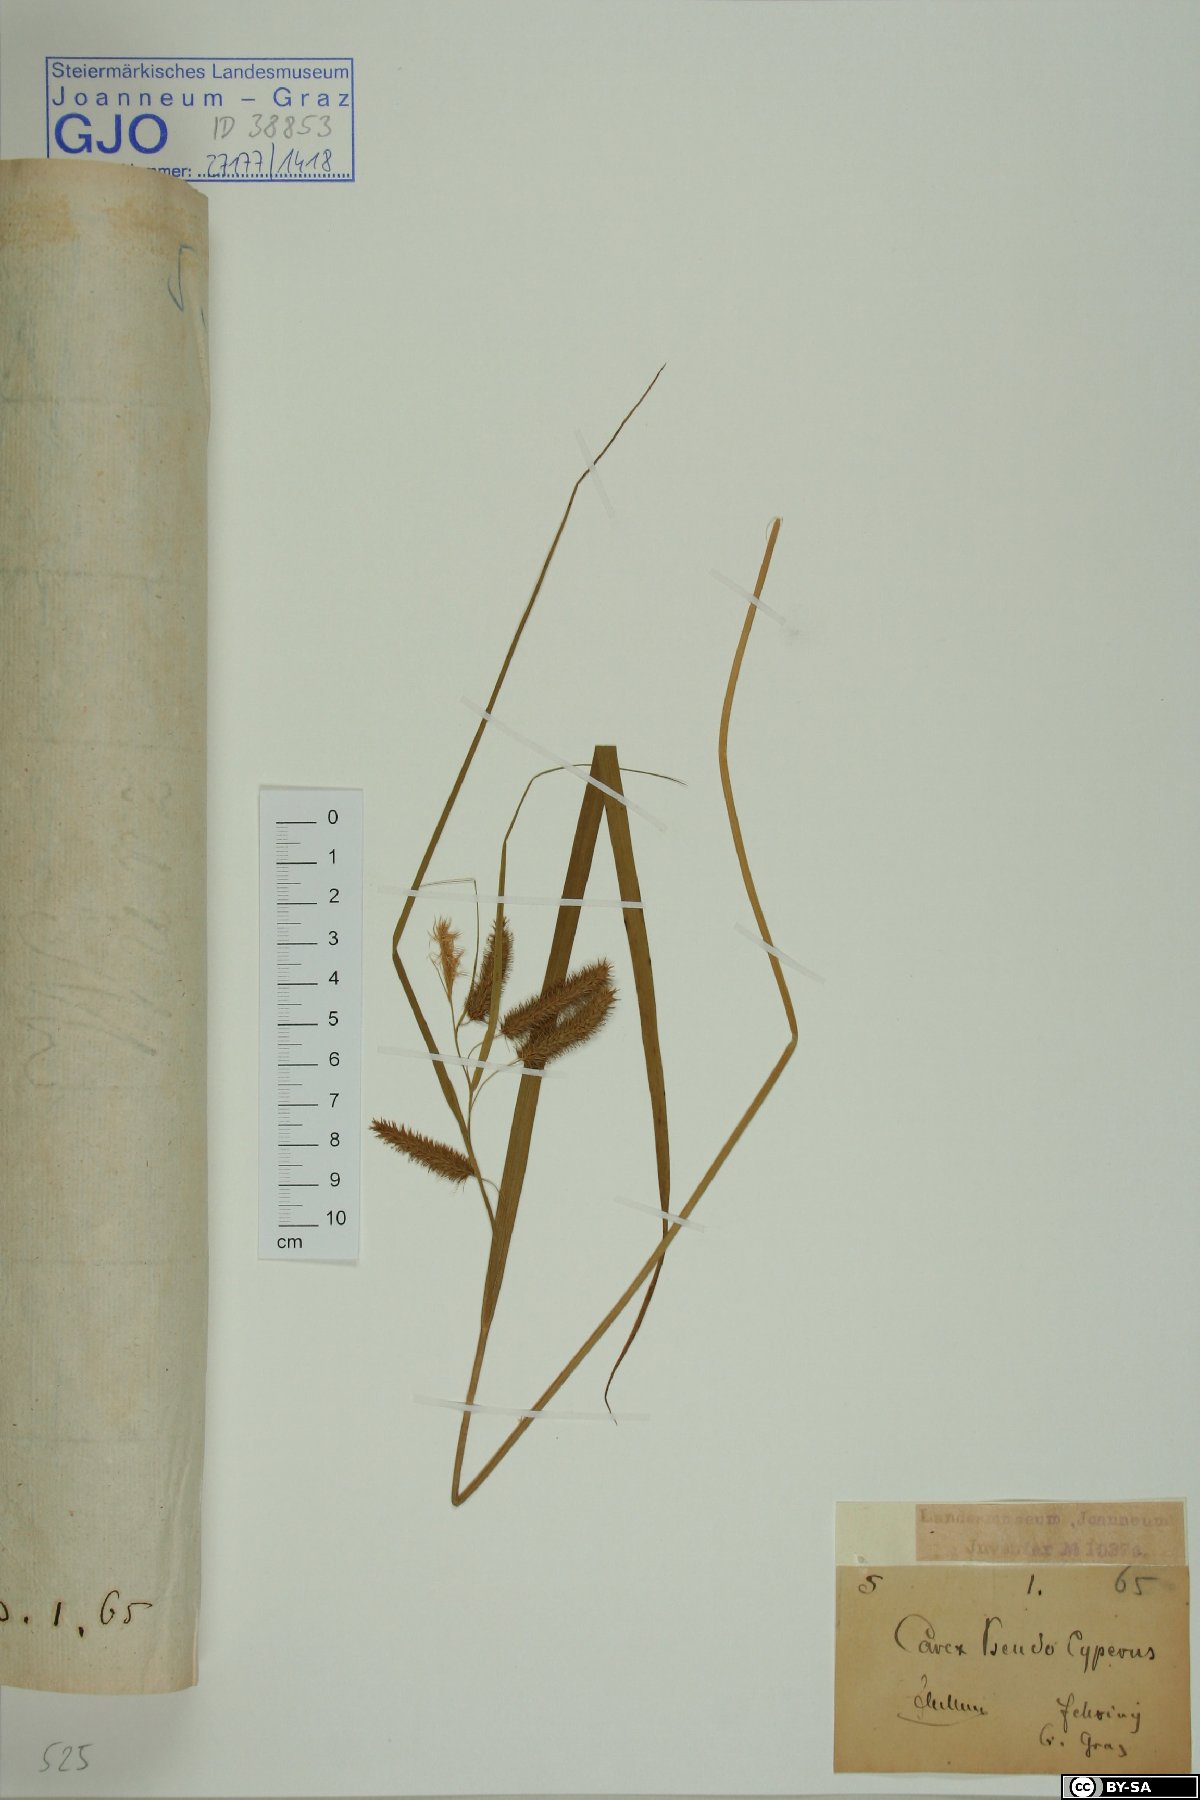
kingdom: Plantae
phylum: Tracheophyta
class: Liliopsida
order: Poales
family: Cyperaceae
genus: Carex
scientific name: Carex pseudocyperus
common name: Cyperus sedge
